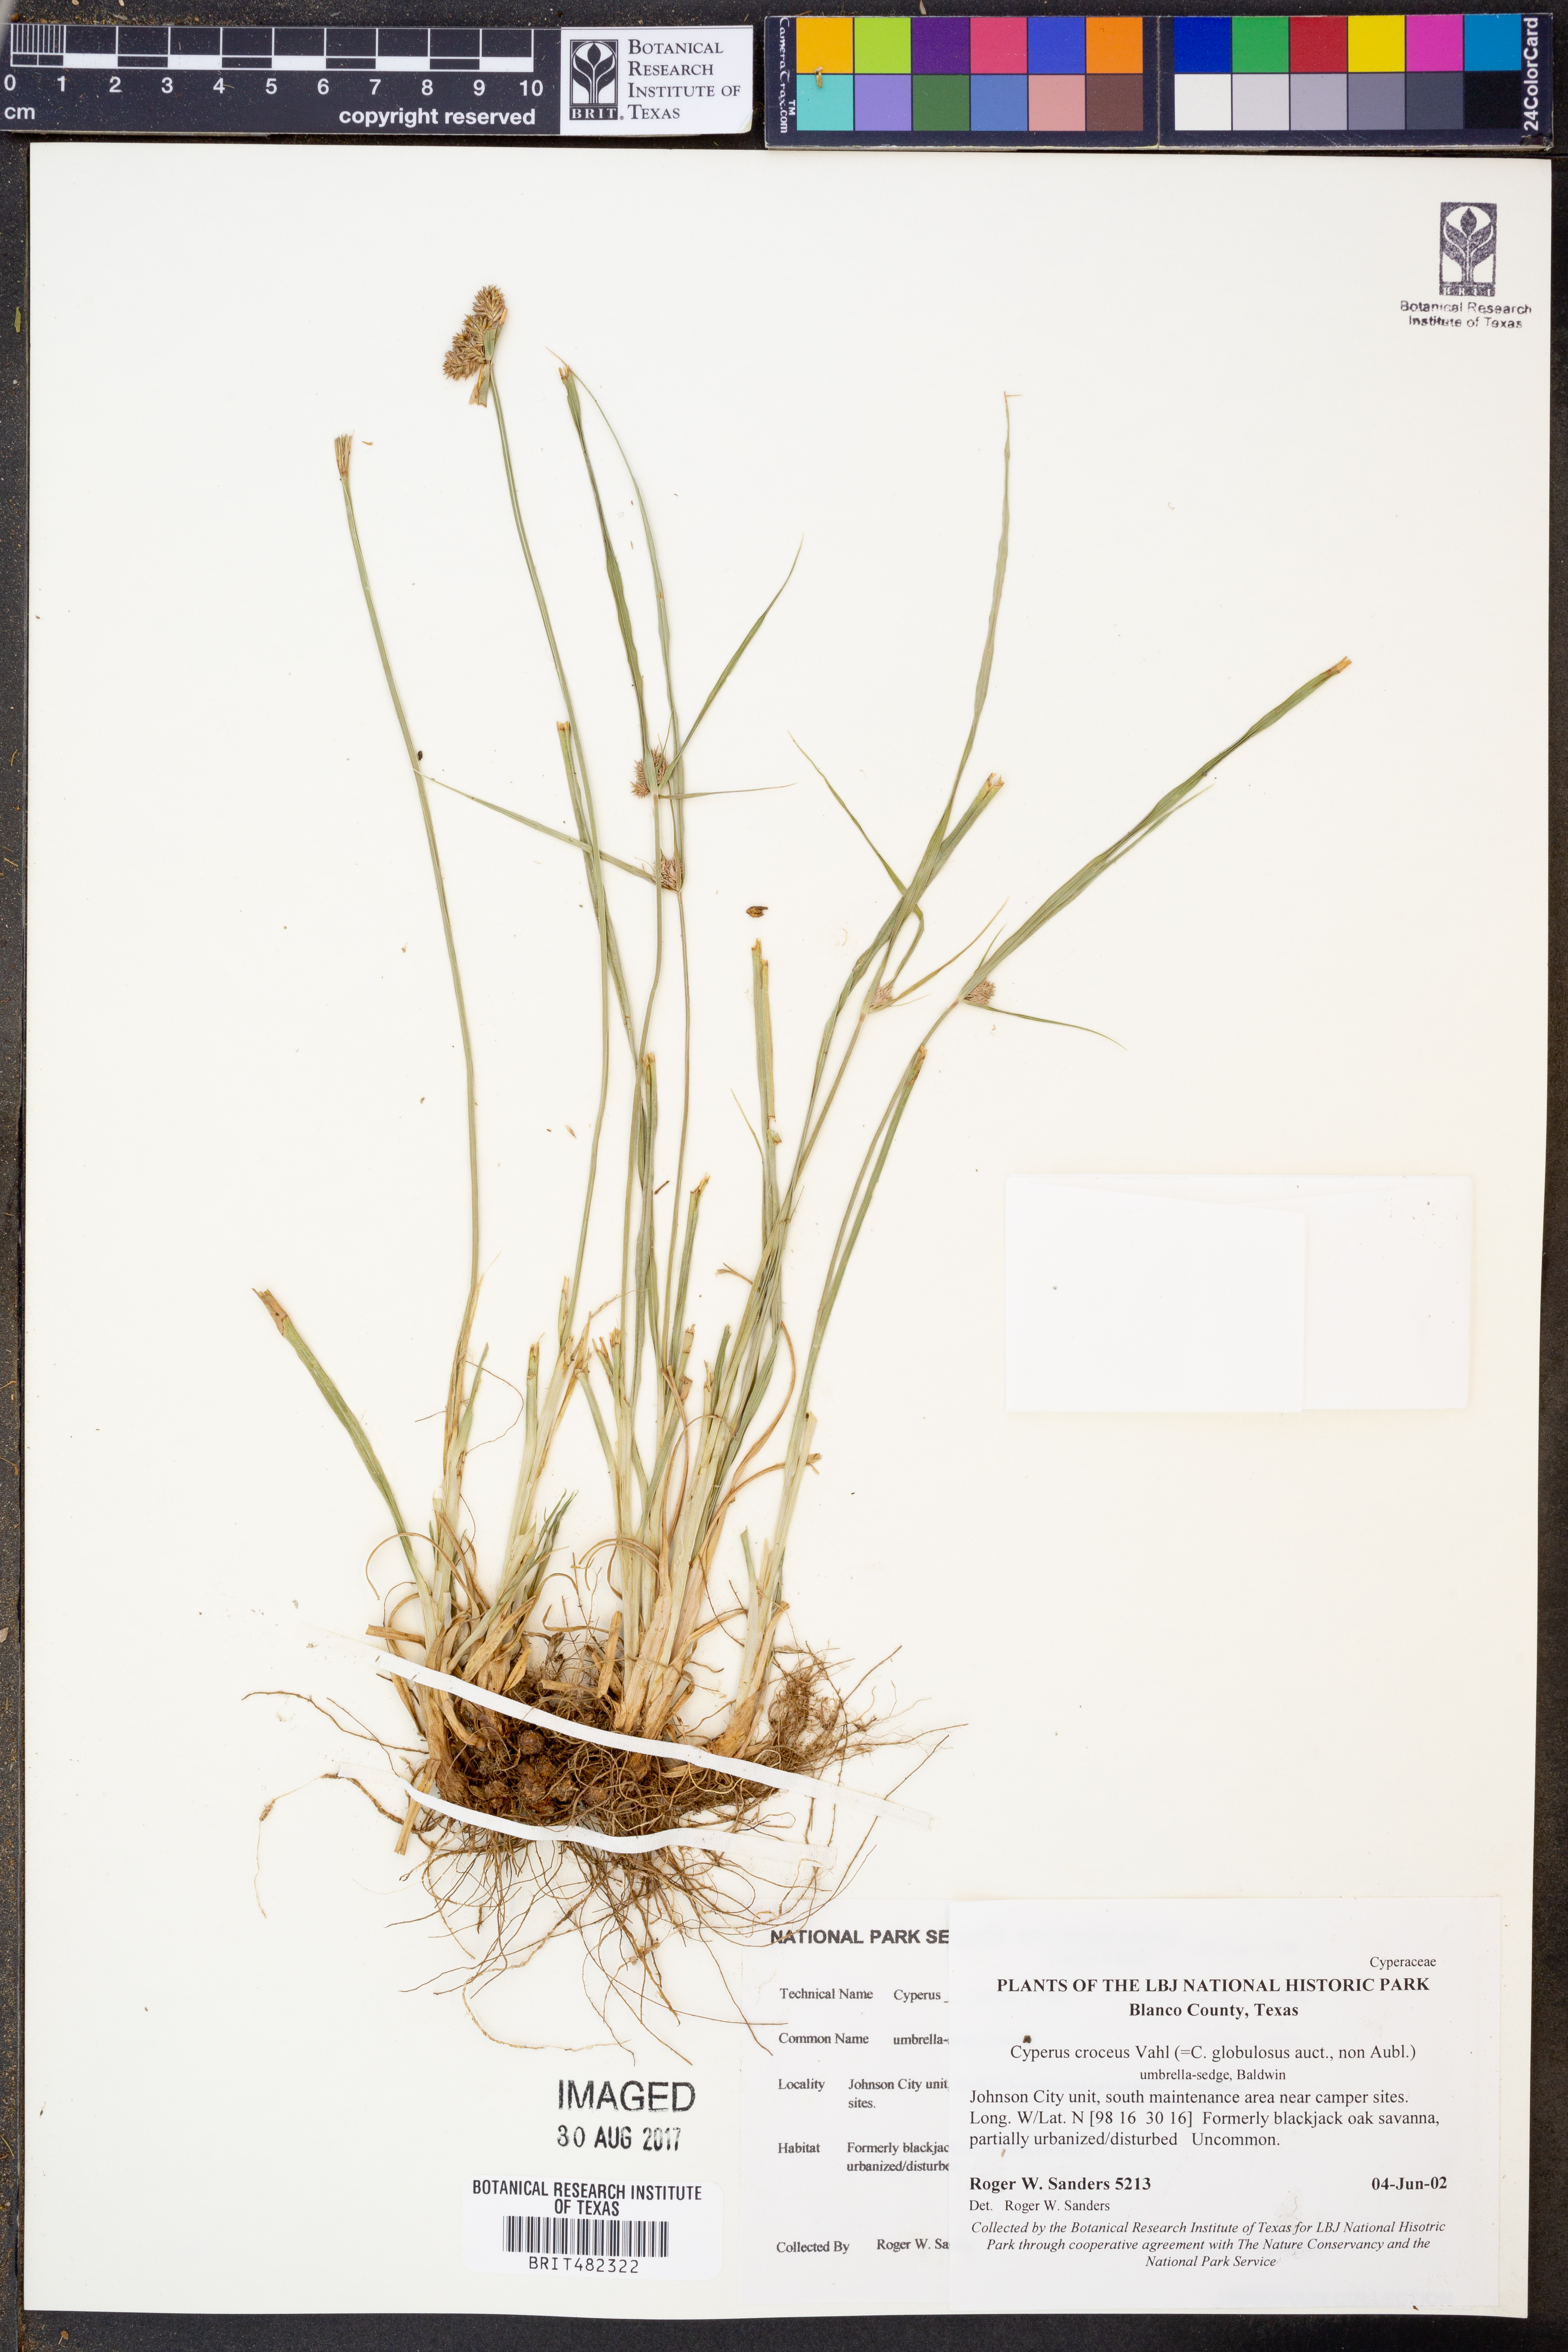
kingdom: Plantae
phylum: Tracheophyta
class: Liliopsida
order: Poales
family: Cyperaceae
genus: Cyperus
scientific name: Cyperus croceus
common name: Baldwin's flatsedge
